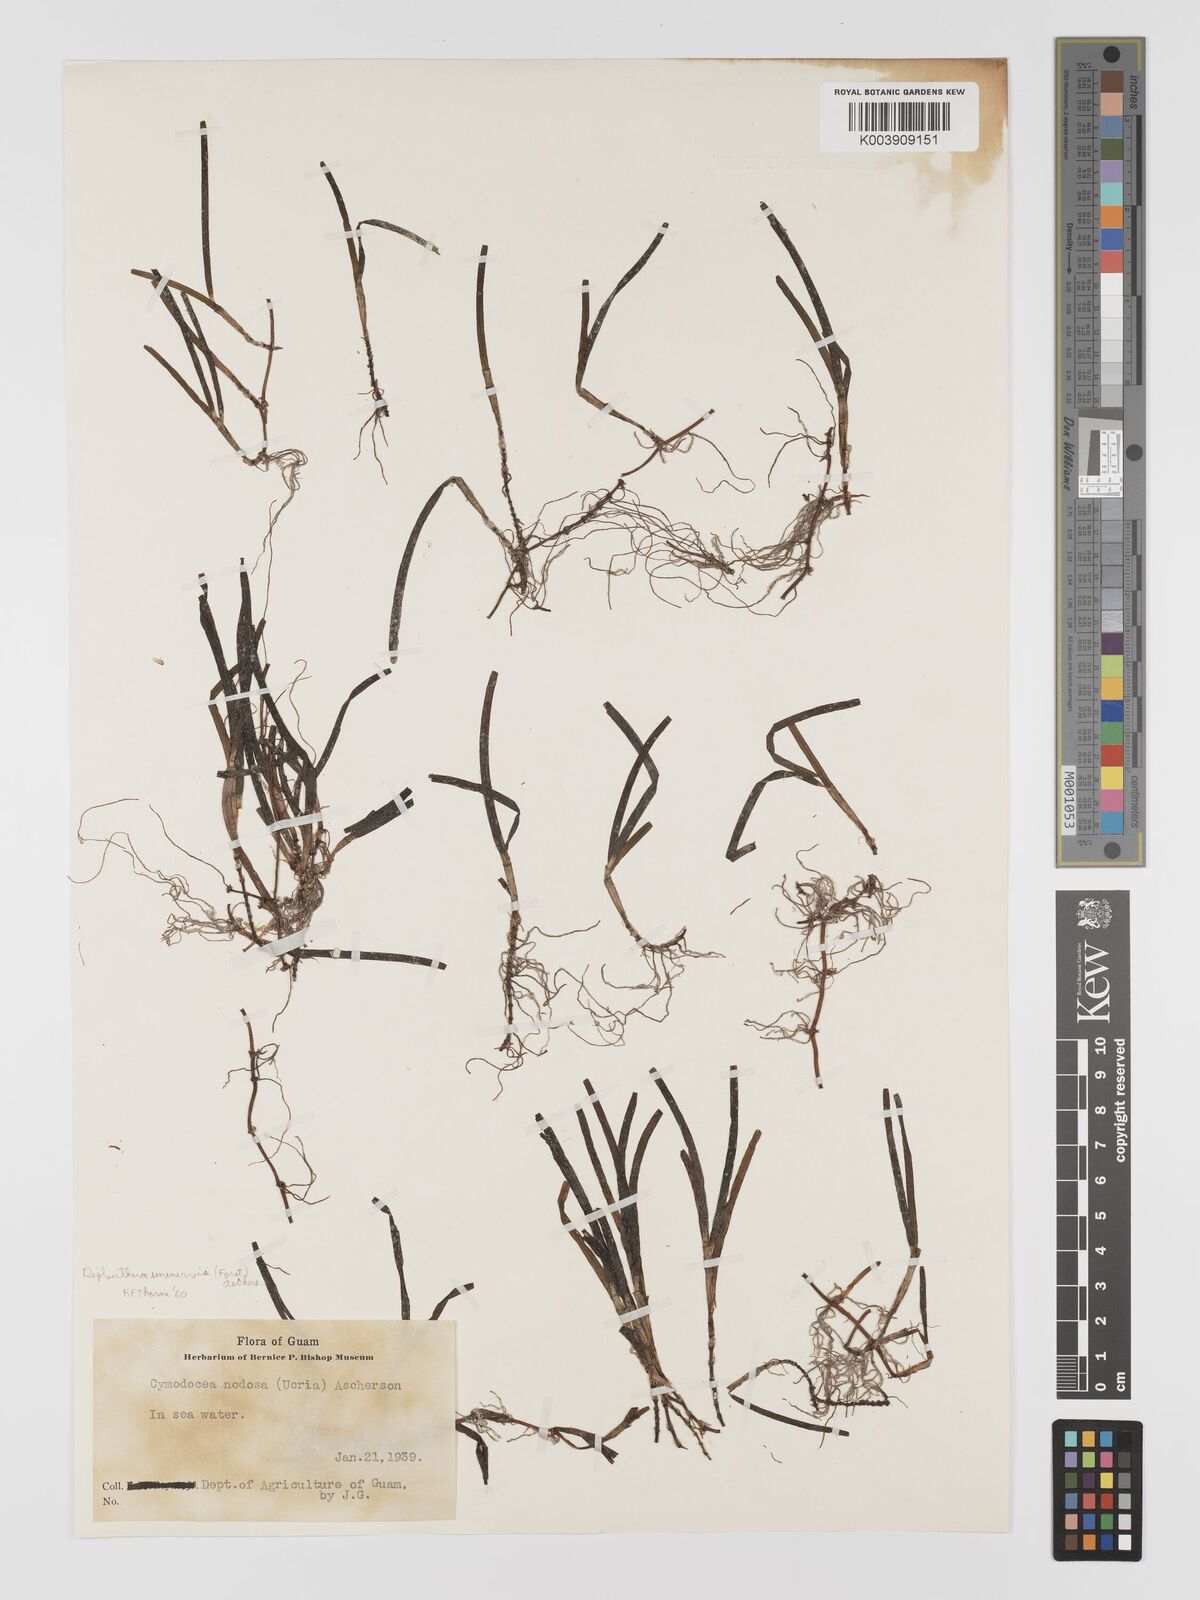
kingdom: Plantae
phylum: Tracheophyta
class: Liliopsida
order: Alismatales
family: Cymodoceaceae
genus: Halodule
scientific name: Halodule
